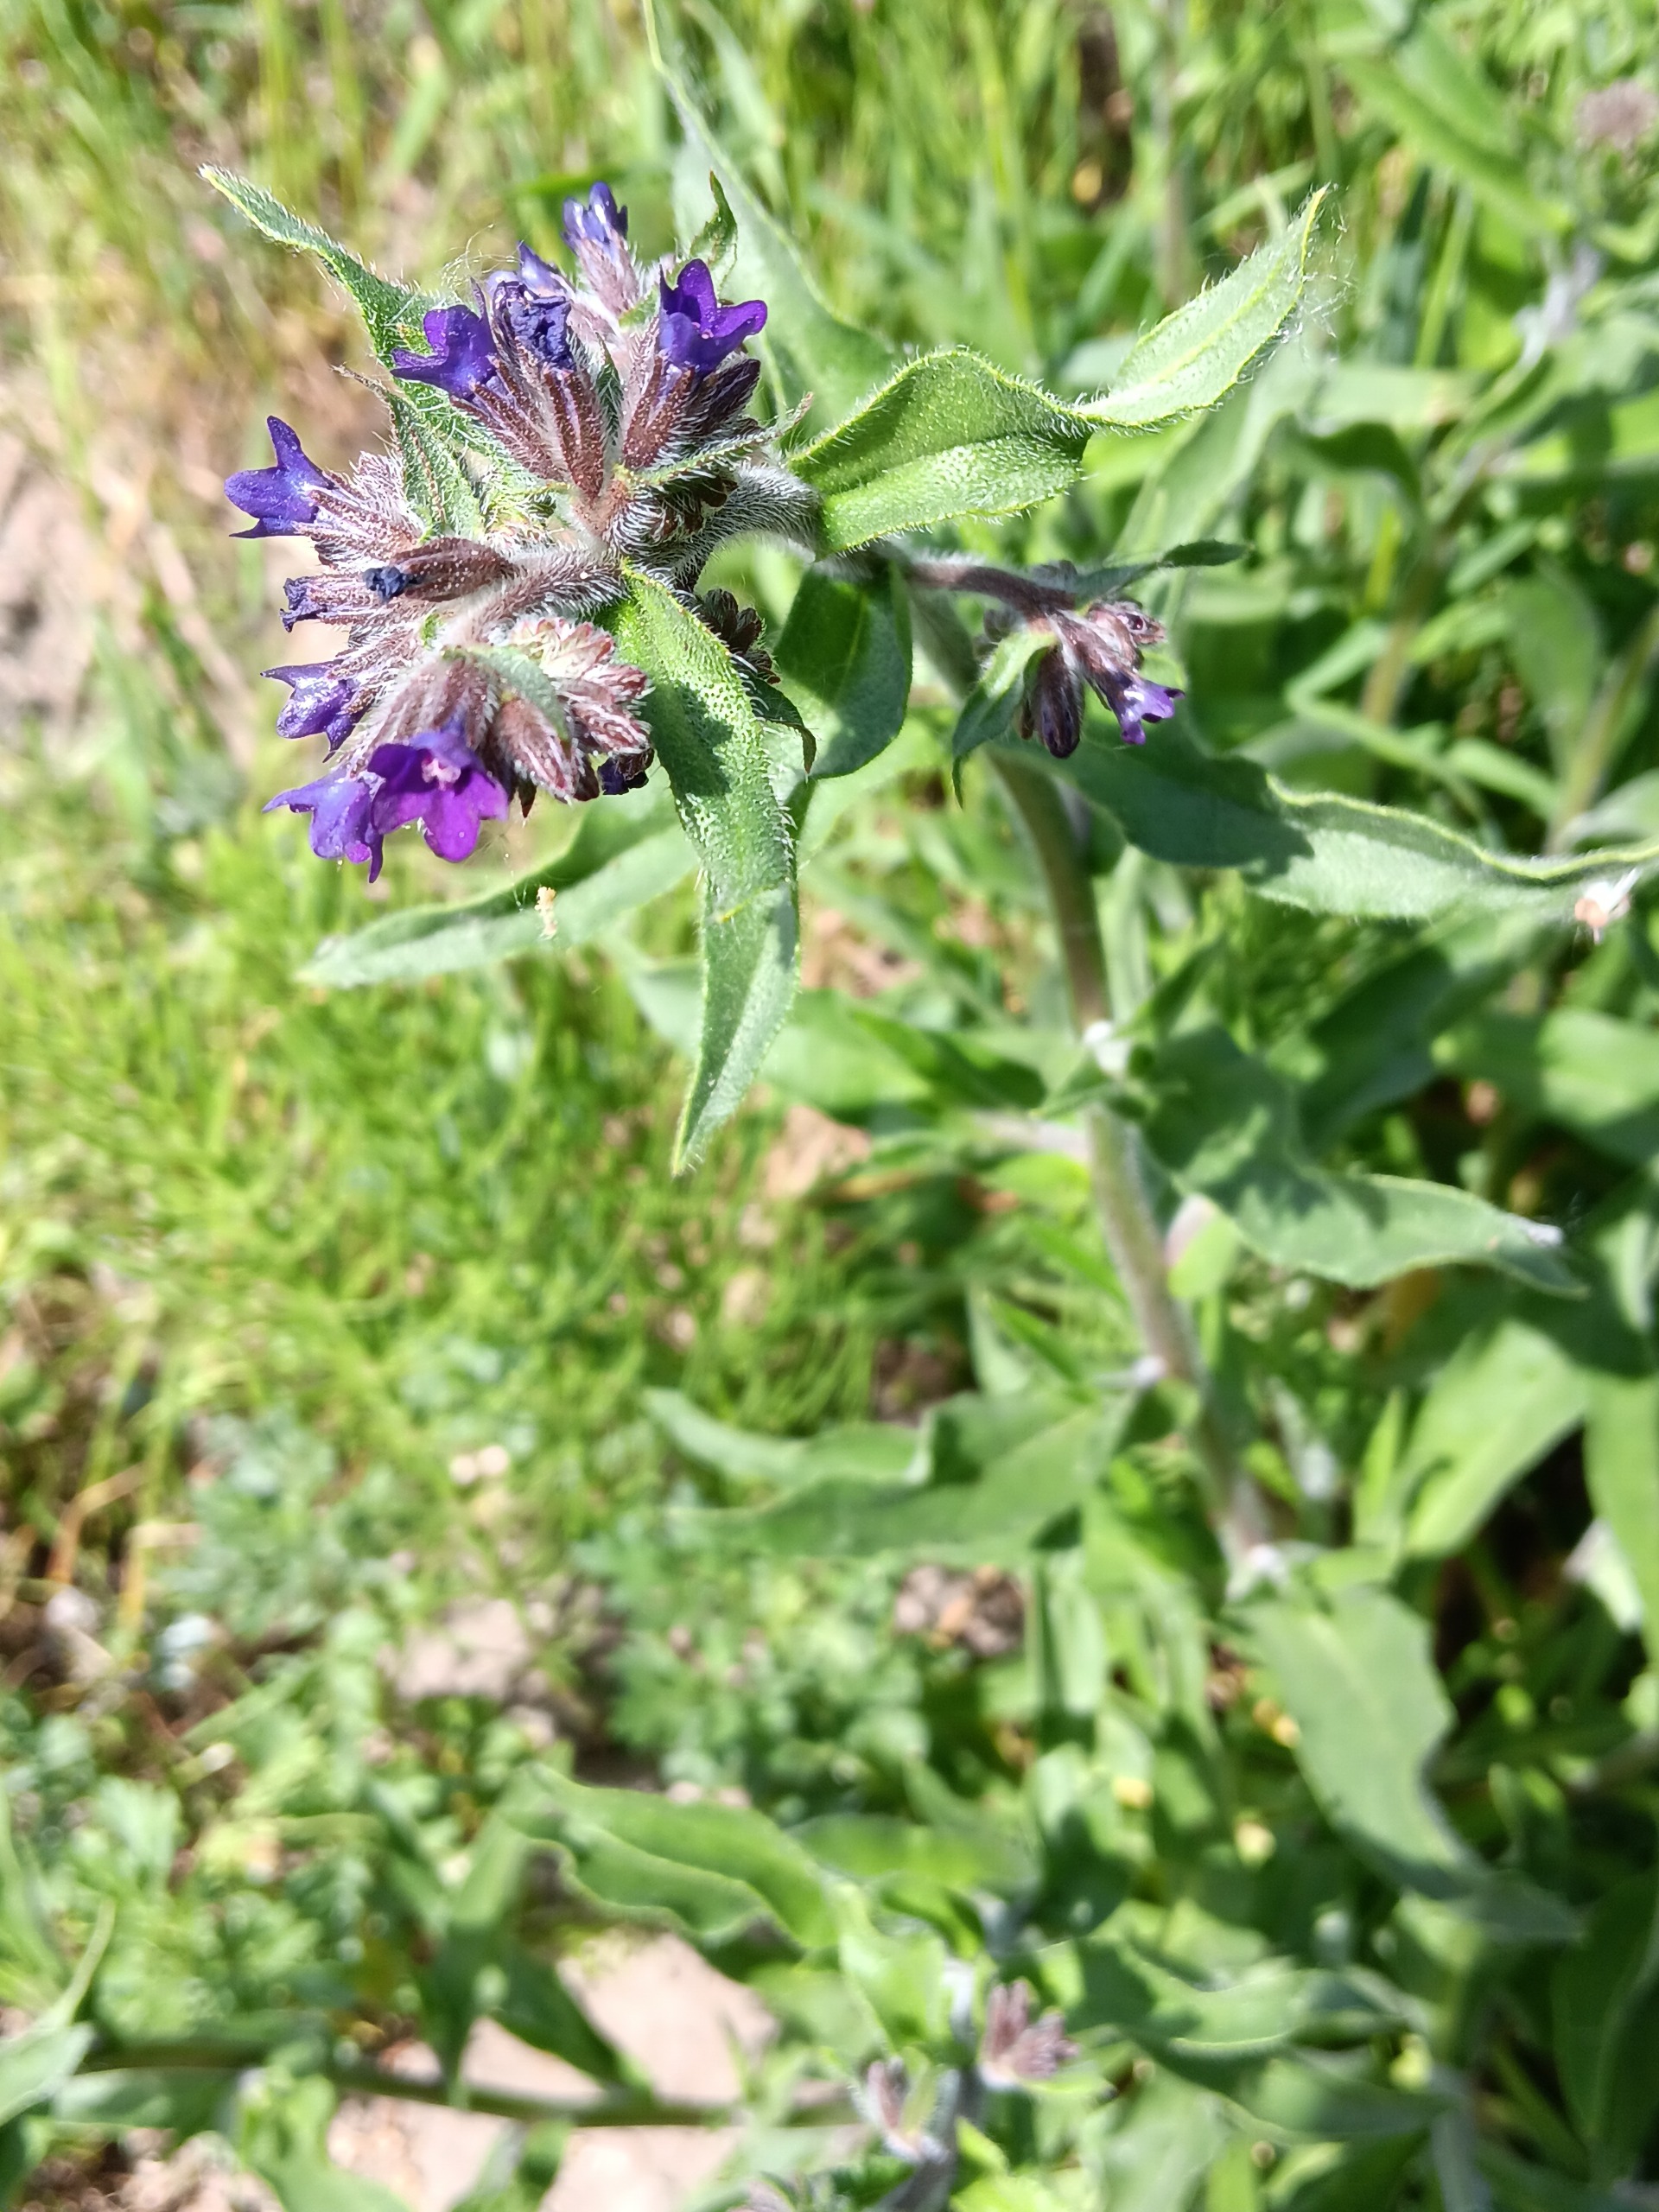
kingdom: Plantae
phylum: Tracheophyta
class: Magnoliopsida
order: Boraginales
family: Boraginaceae
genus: Anchusa
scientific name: Anchusa officinalis
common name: Læge-oksetunge
